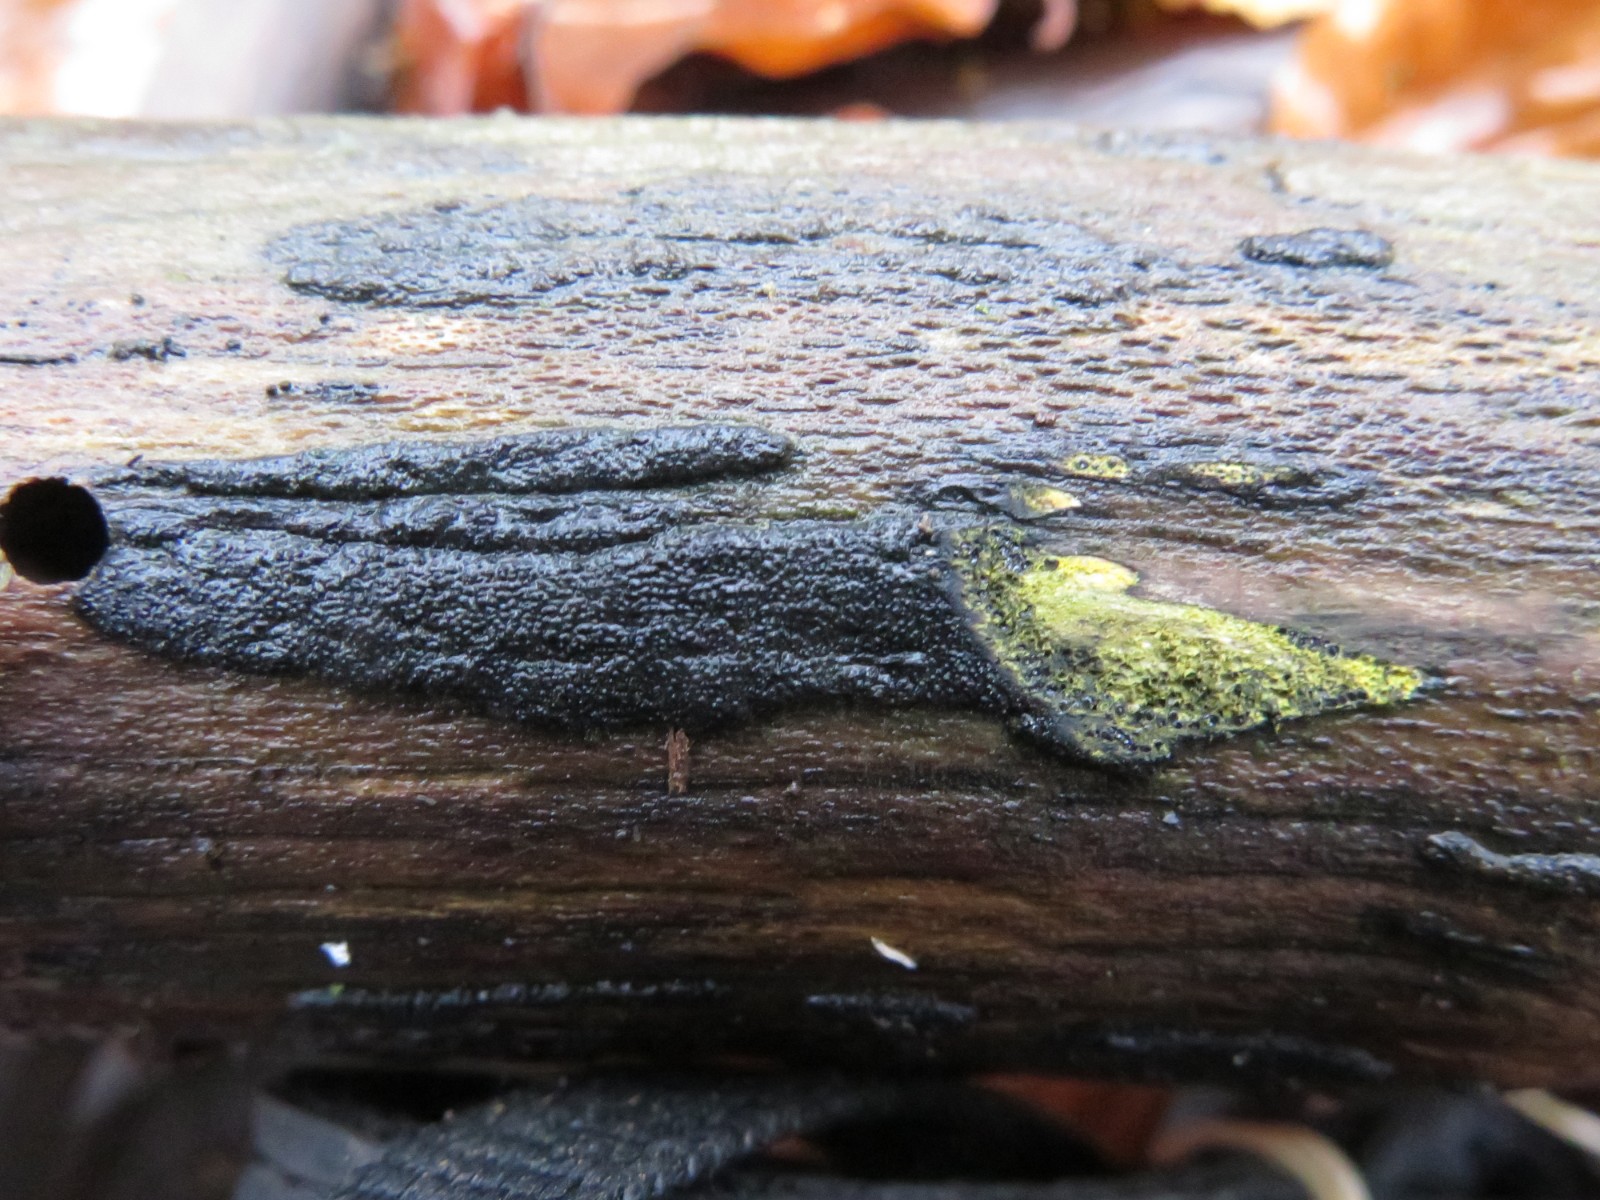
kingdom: Fungi
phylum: Ascomycota
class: Sordariomycetes
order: Xylariales
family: Diatrypaceae
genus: Eutypa
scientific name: Eutypa flavovirens
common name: grønkødet kulskorpe
